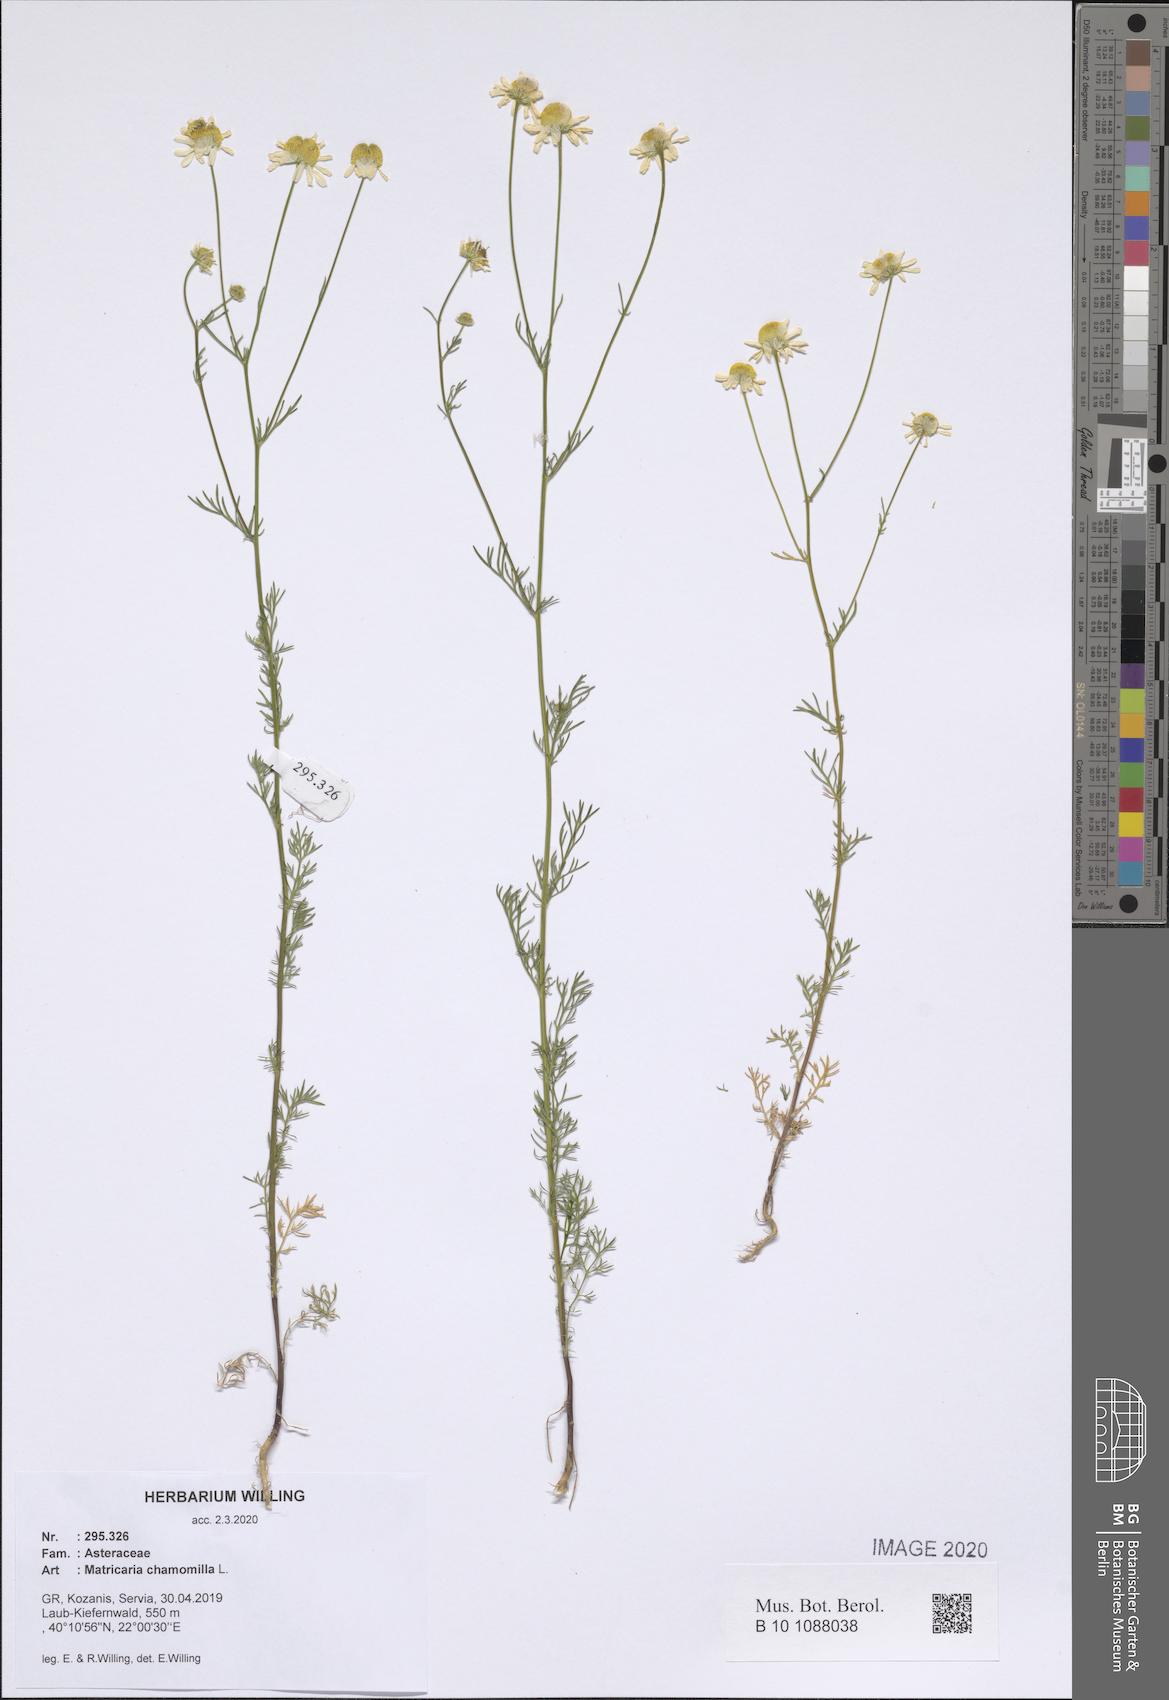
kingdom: Plantae
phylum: Tracheophyta
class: Magnoliopsida
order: Asterales
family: Asteraceae
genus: Matricaria
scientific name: Matricaria chamomilla
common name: Scented mayweed
